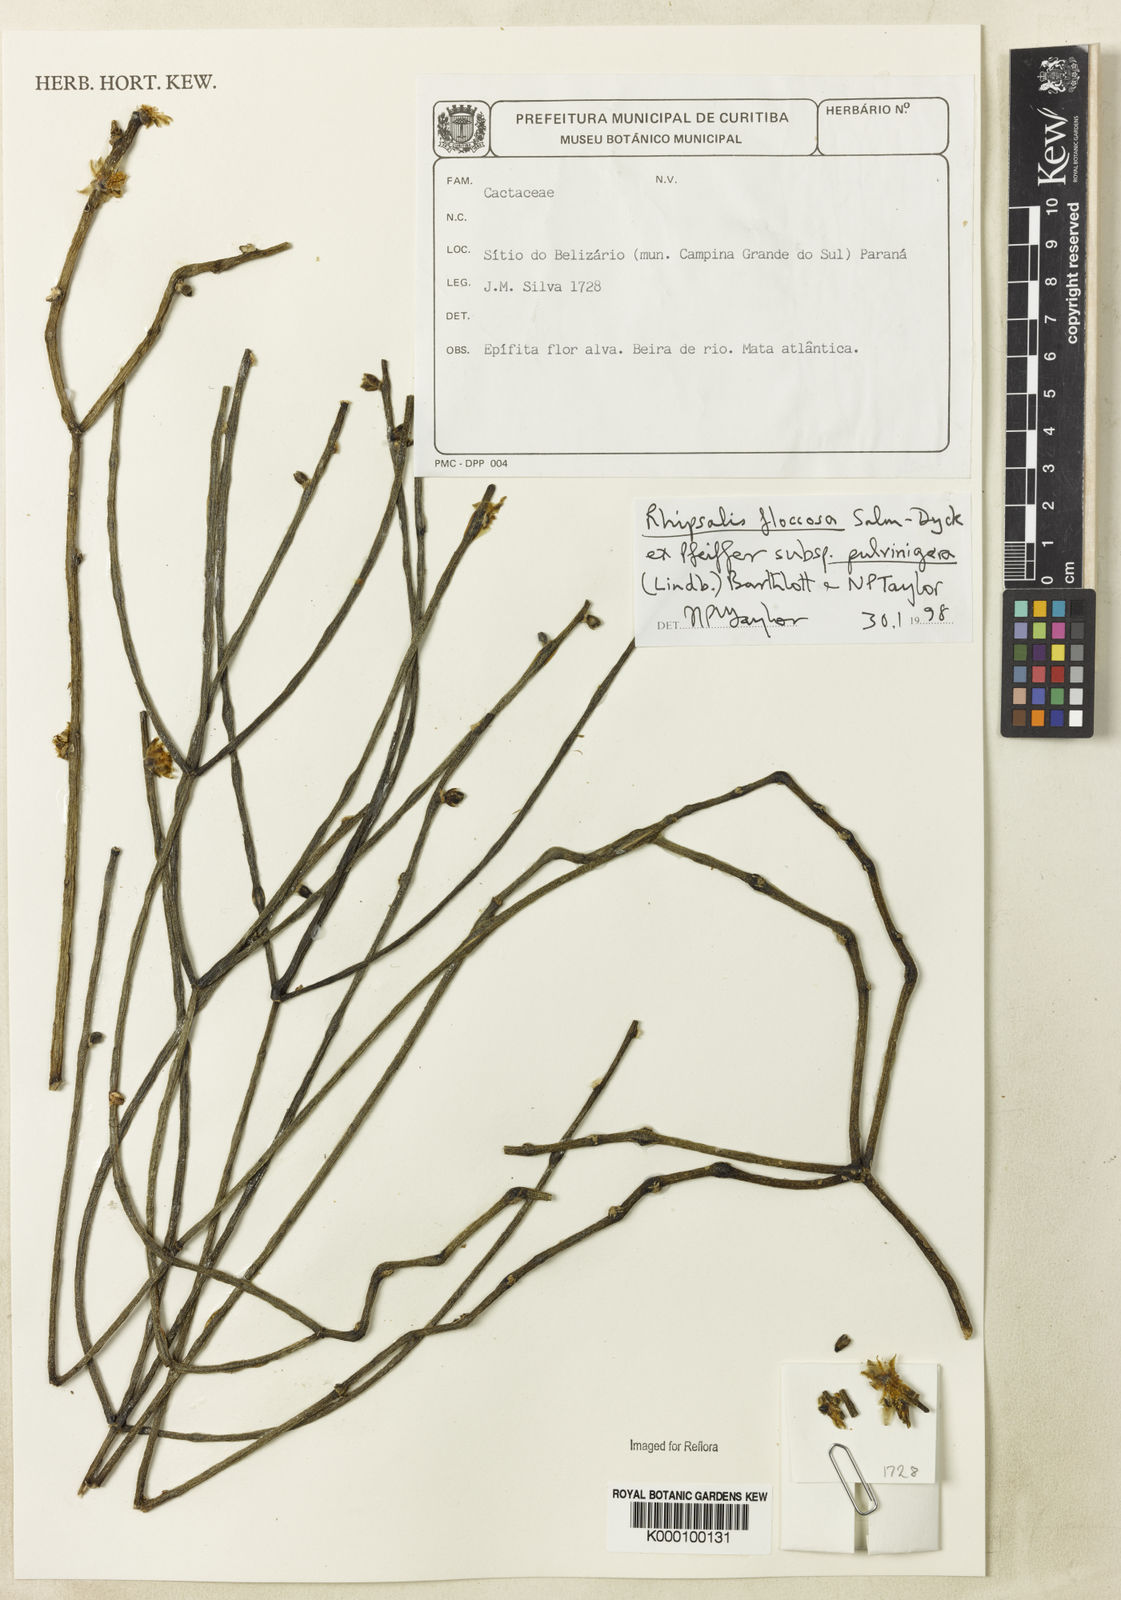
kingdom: Plantae
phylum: Tracheophyta
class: Magnoliopsida
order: Caryophyllales
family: Cactaceae
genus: Rhipsalis
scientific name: Rhipsalis floccosa
